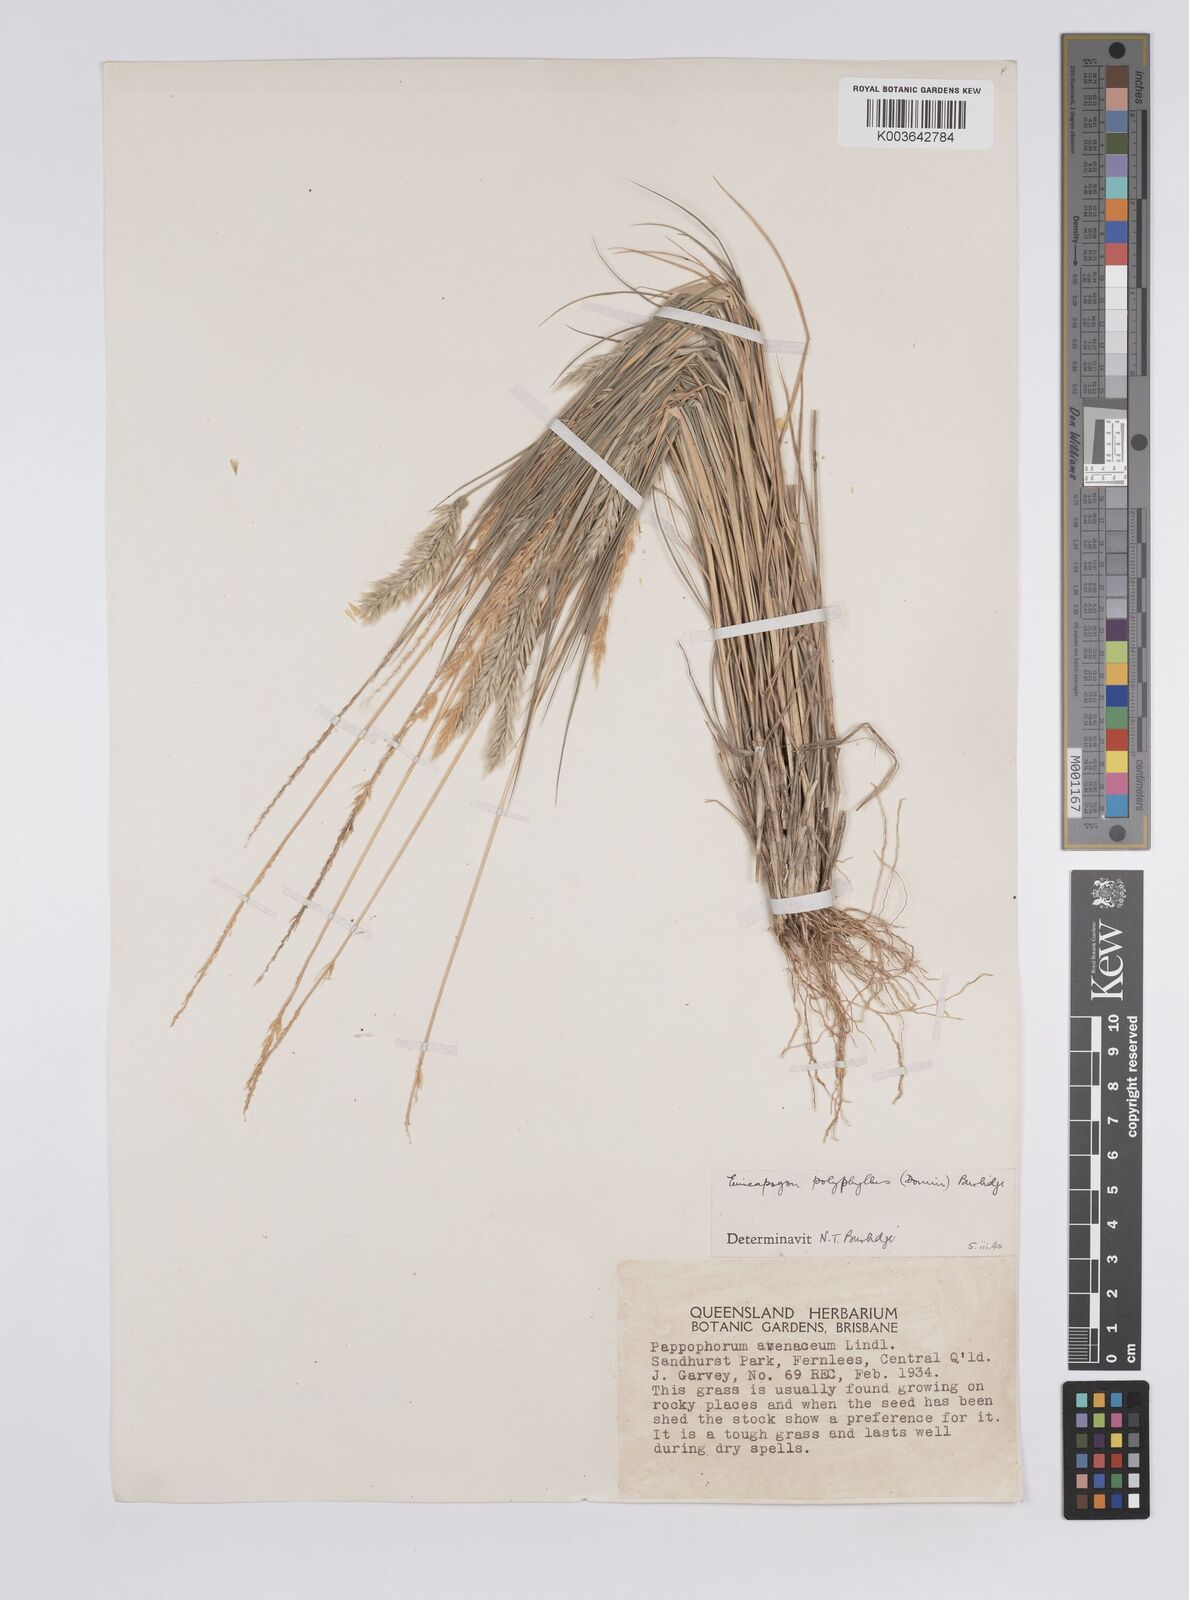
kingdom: Plantae
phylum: Tracheophyta
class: Liliopsida
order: Poales
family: Poaceae
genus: Enneapogon
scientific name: Enneapogon polyphyllus
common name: Leafy nineawn
